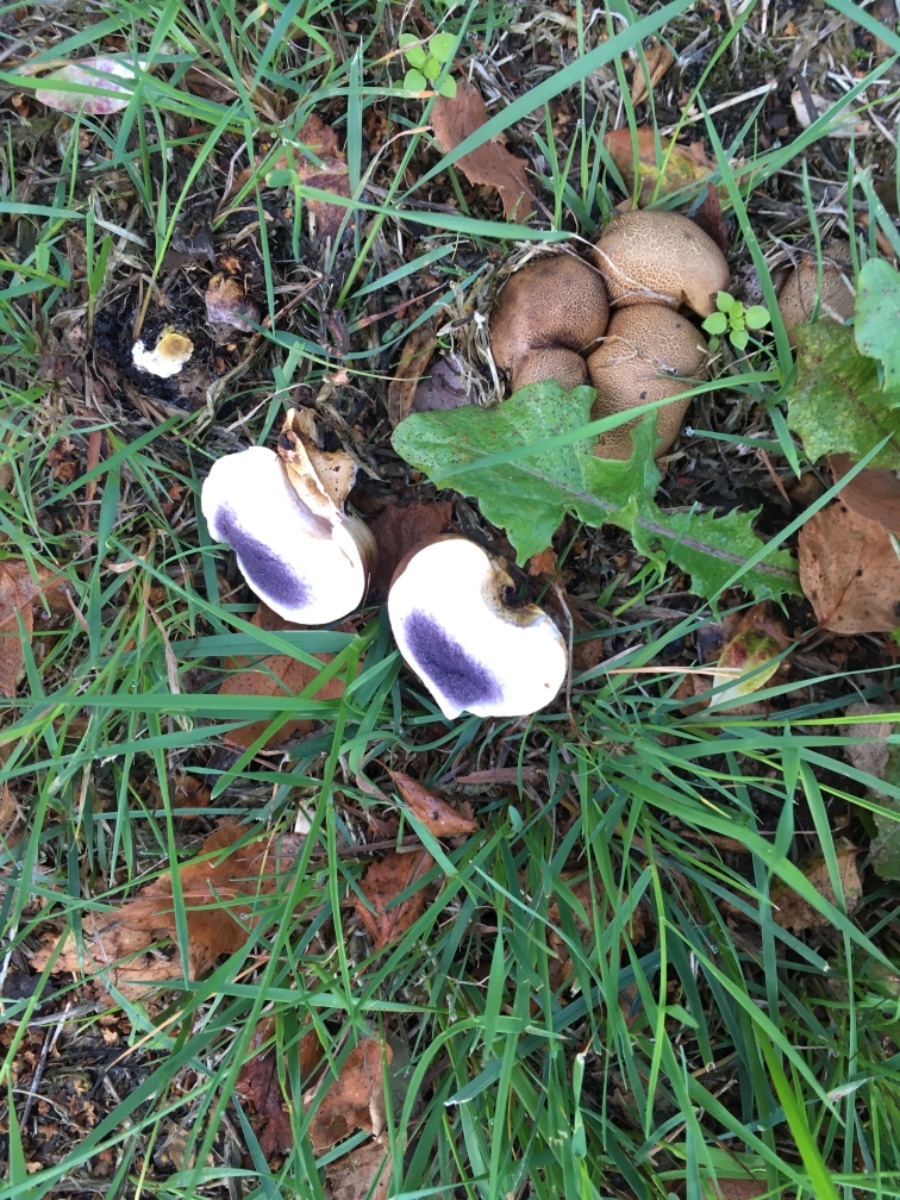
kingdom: Fungi
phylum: Basidiomycota
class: Agaricomycetes
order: Boletales
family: Sclerodermataceae
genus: Scleroderma
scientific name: Scleroderma
